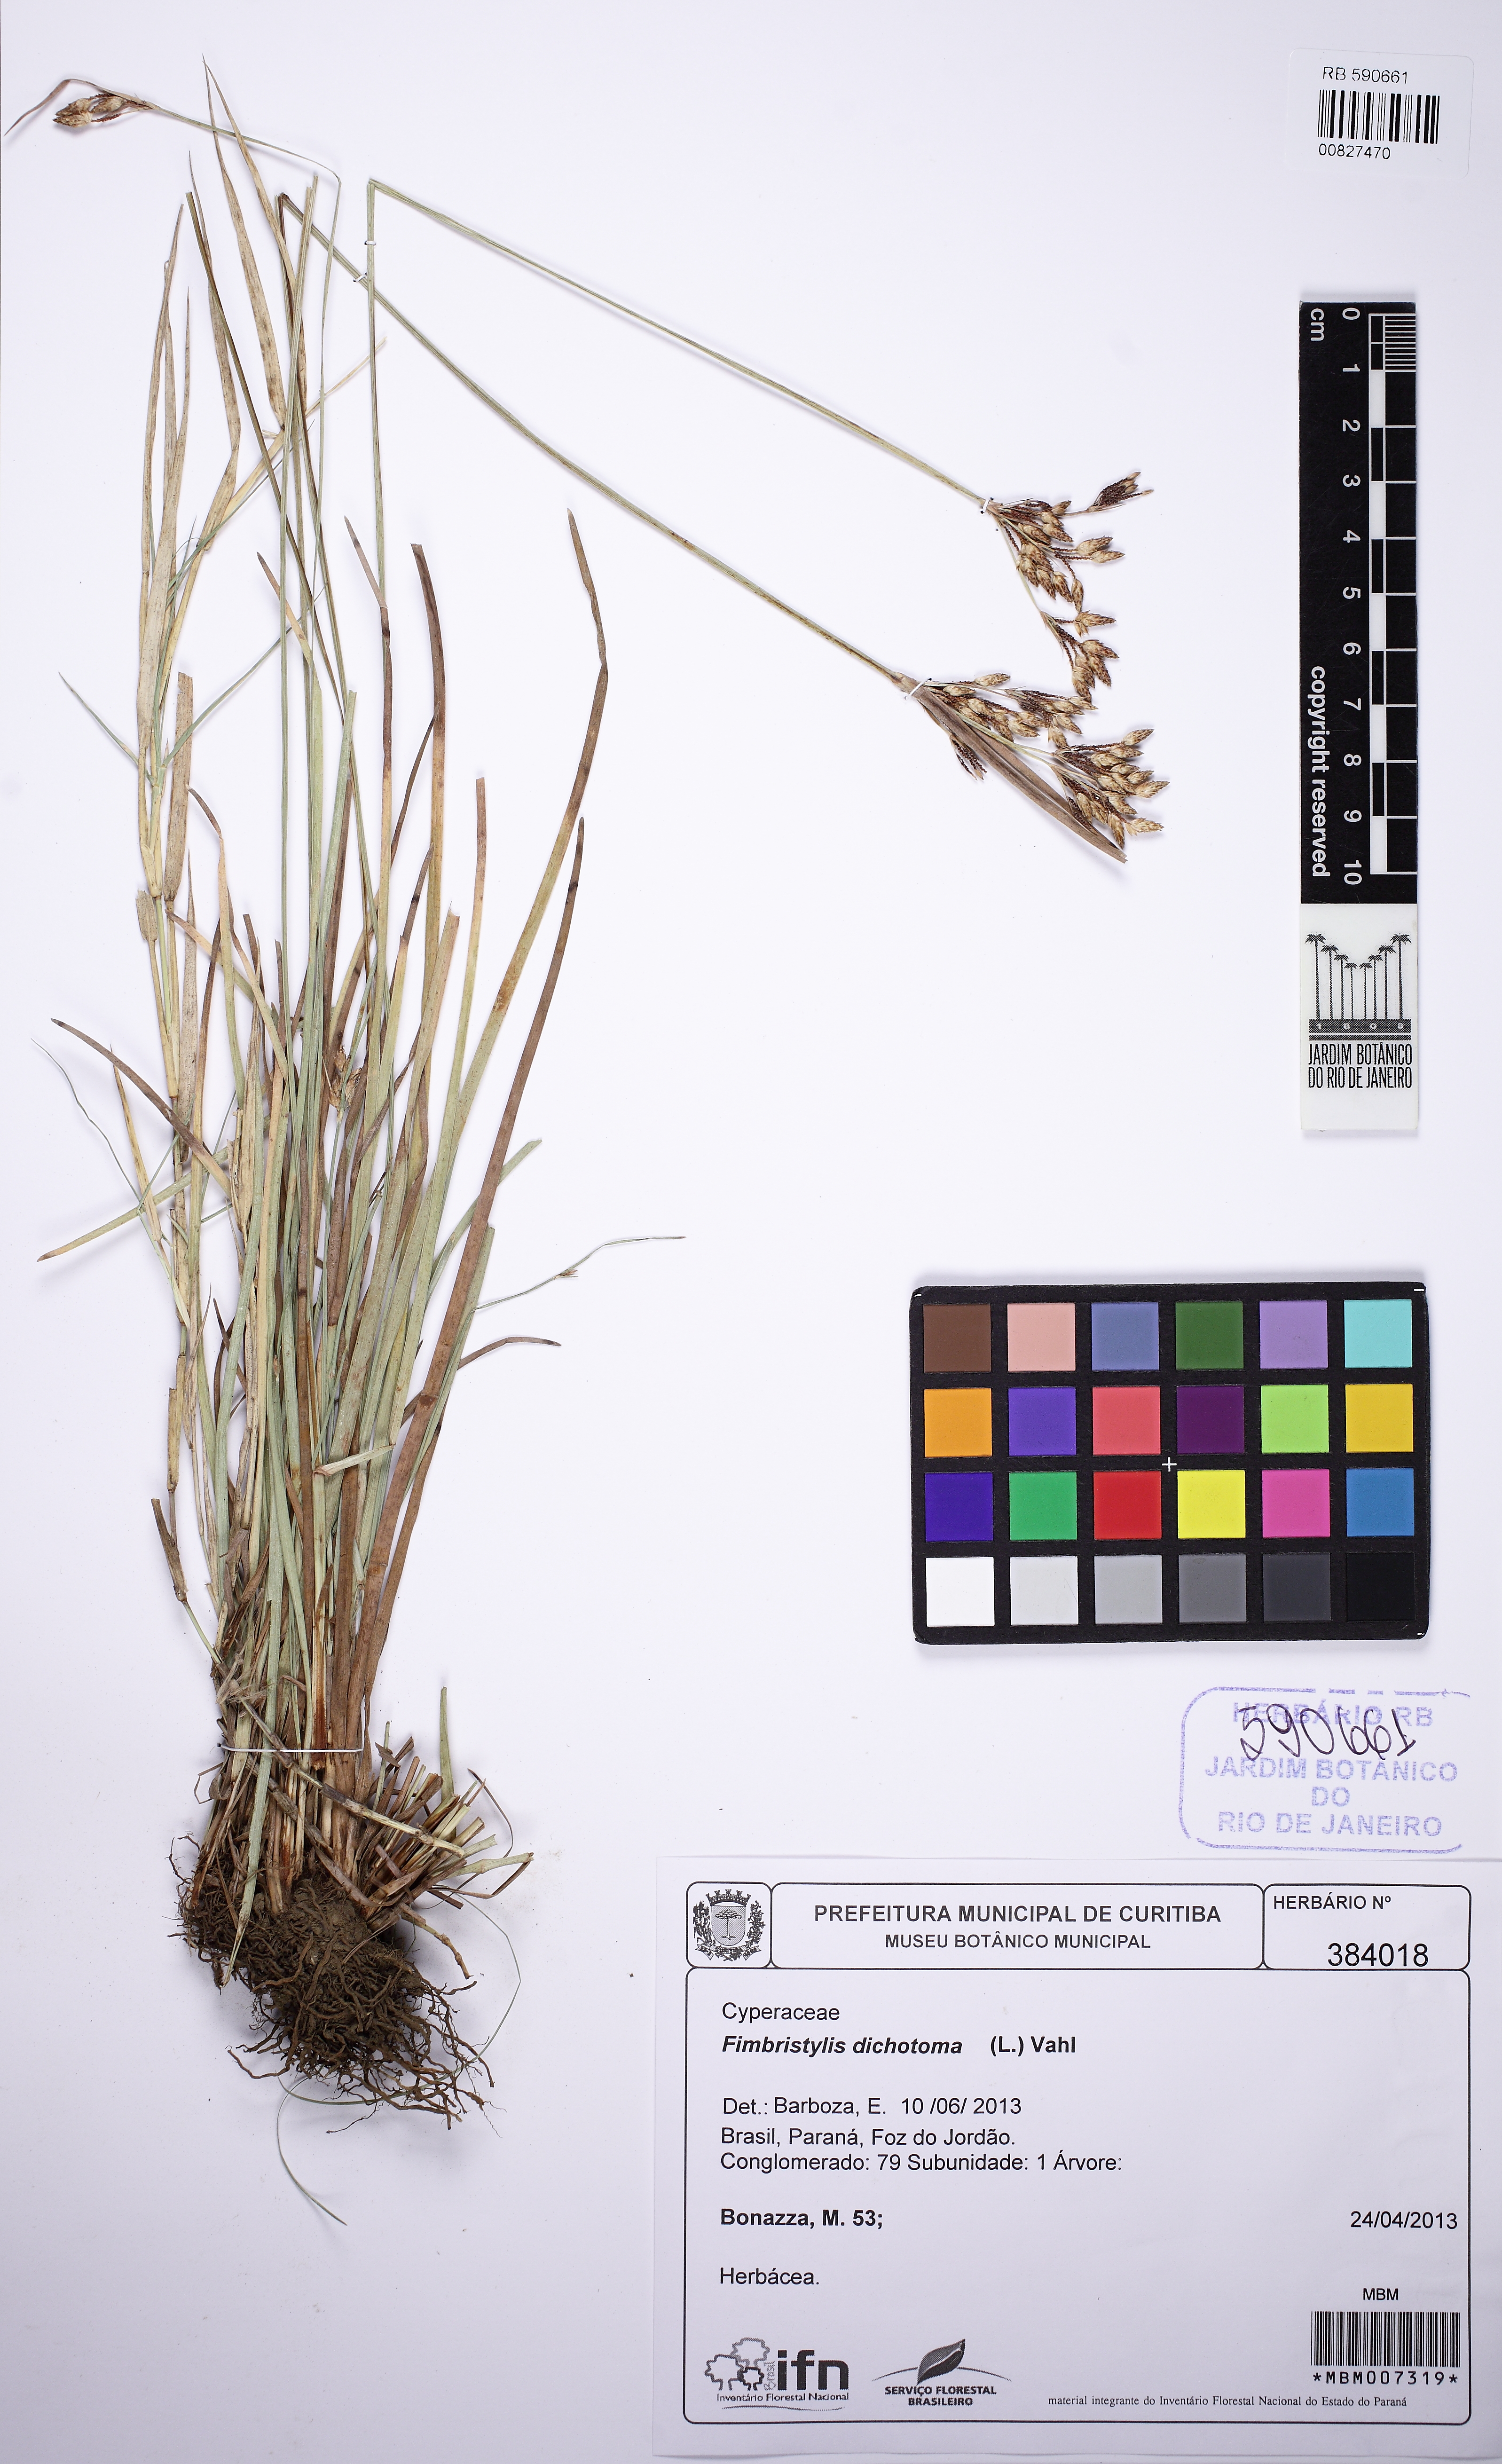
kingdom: Plantae
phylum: Tracheophyta
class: Liliopsida
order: Poales
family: Cyperaceae
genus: Fimbristylis
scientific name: Fimbristylis dichotoma
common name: Forked fimbry
